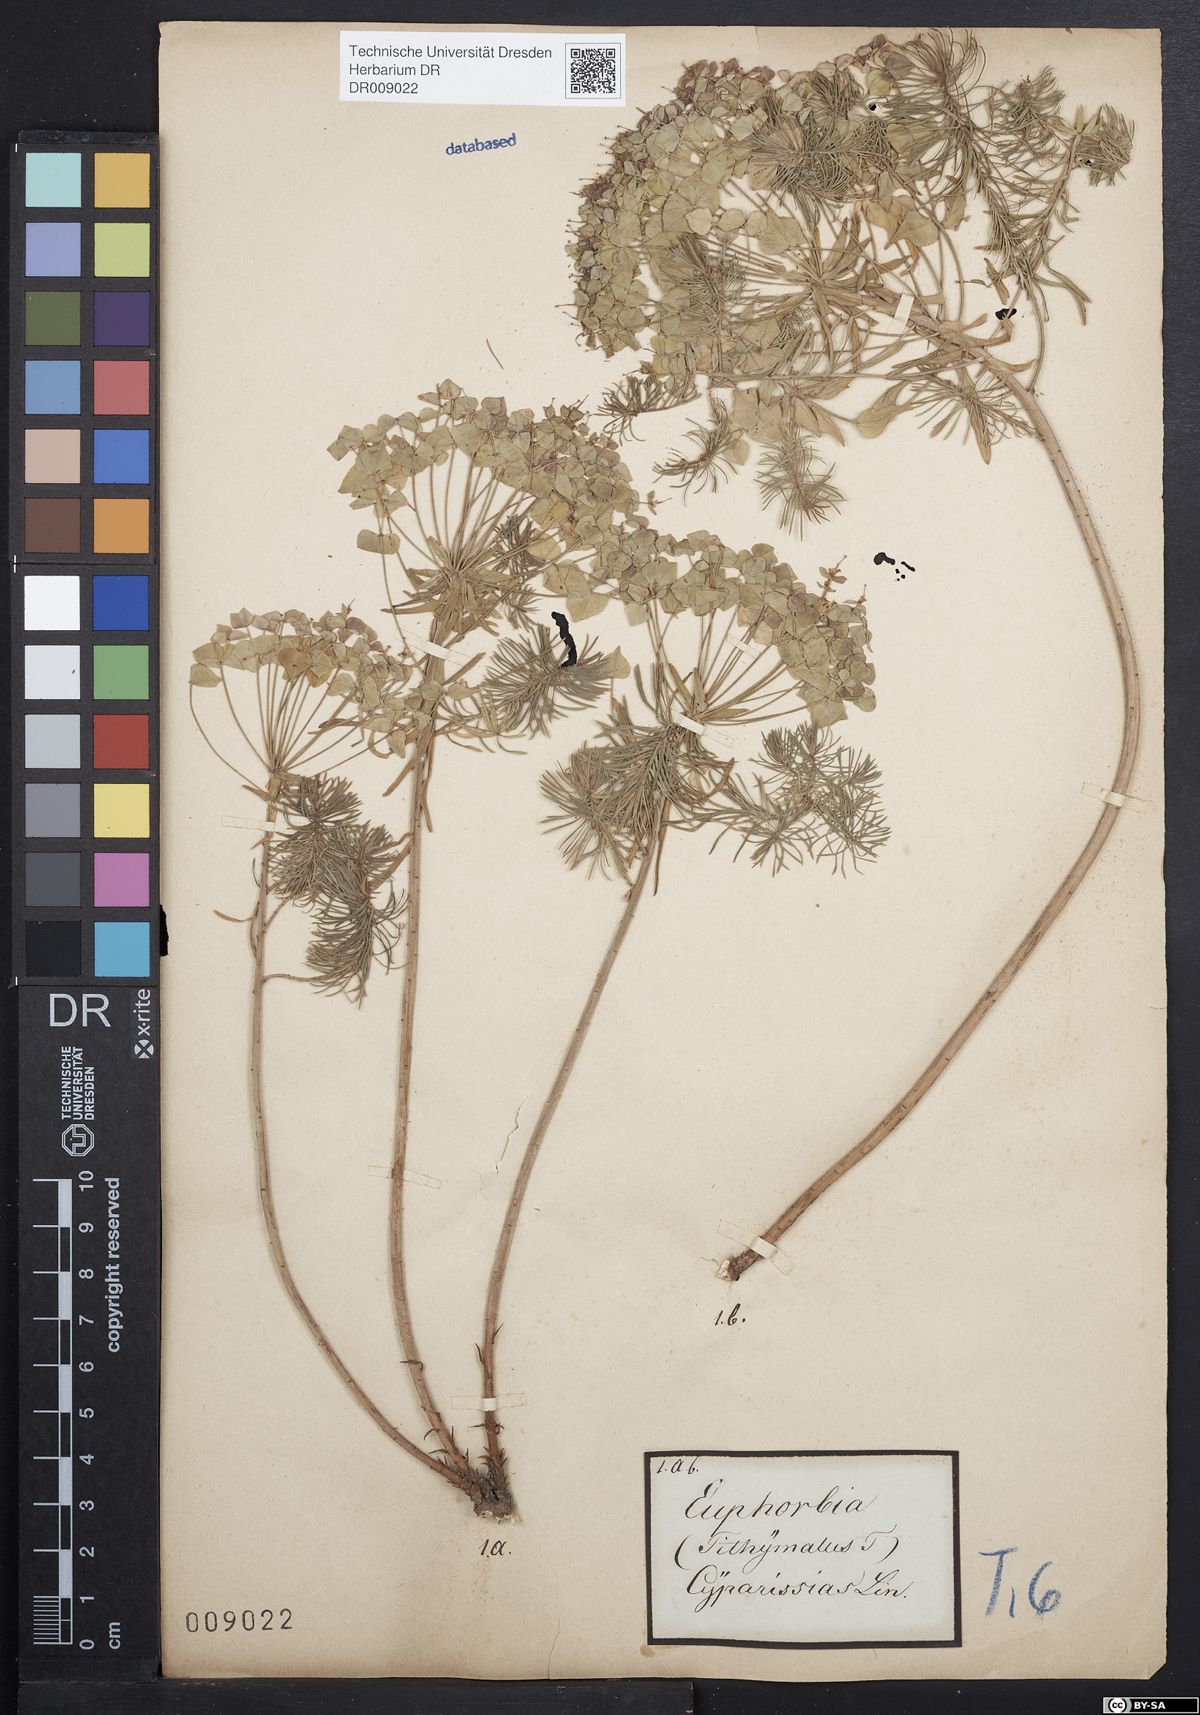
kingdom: Plantae
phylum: Tracheophyta
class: Magnoliopsida
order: Malpighiales
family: Euphorbiaceae
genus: Euphorbia
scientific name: Euphorbia cyparissias
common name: Cypress spurge
